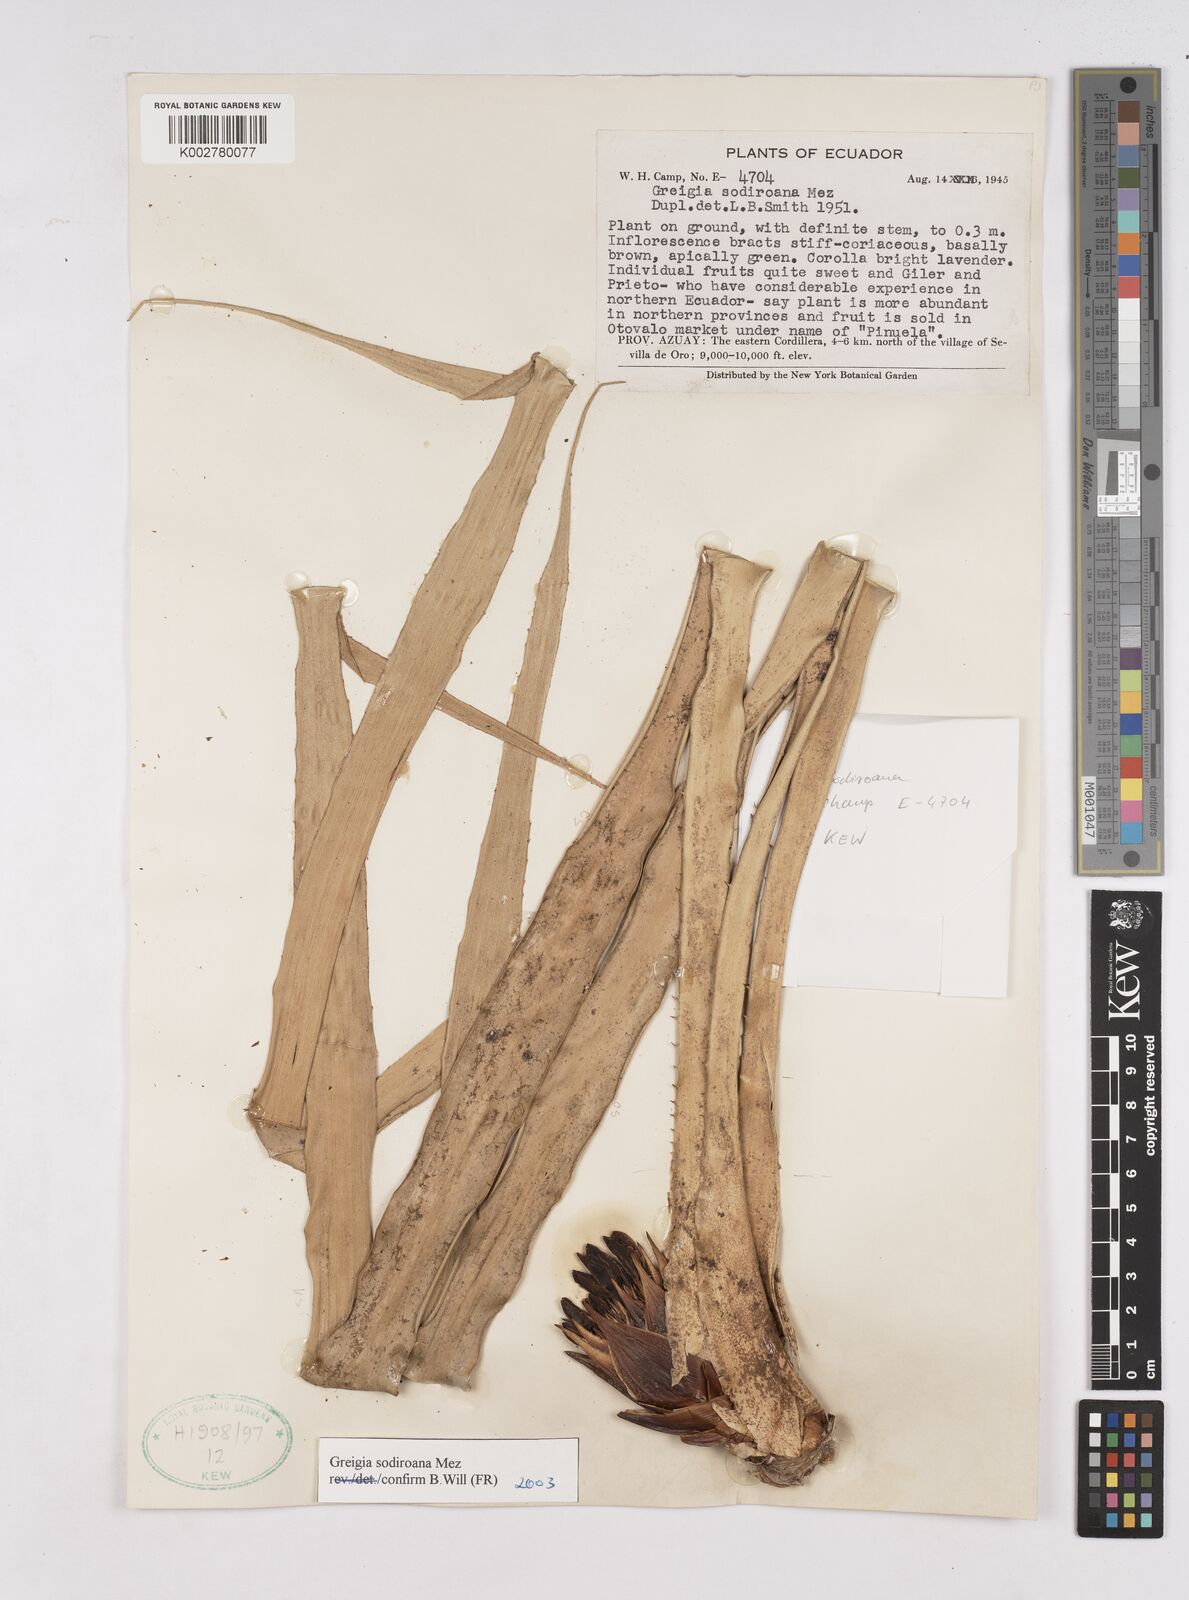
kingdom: Plantae
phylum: Tracheophyta
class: Liliopsida
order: Poales
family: Bromeliaceae
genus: Greigia
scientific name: Greigia sodiroana
